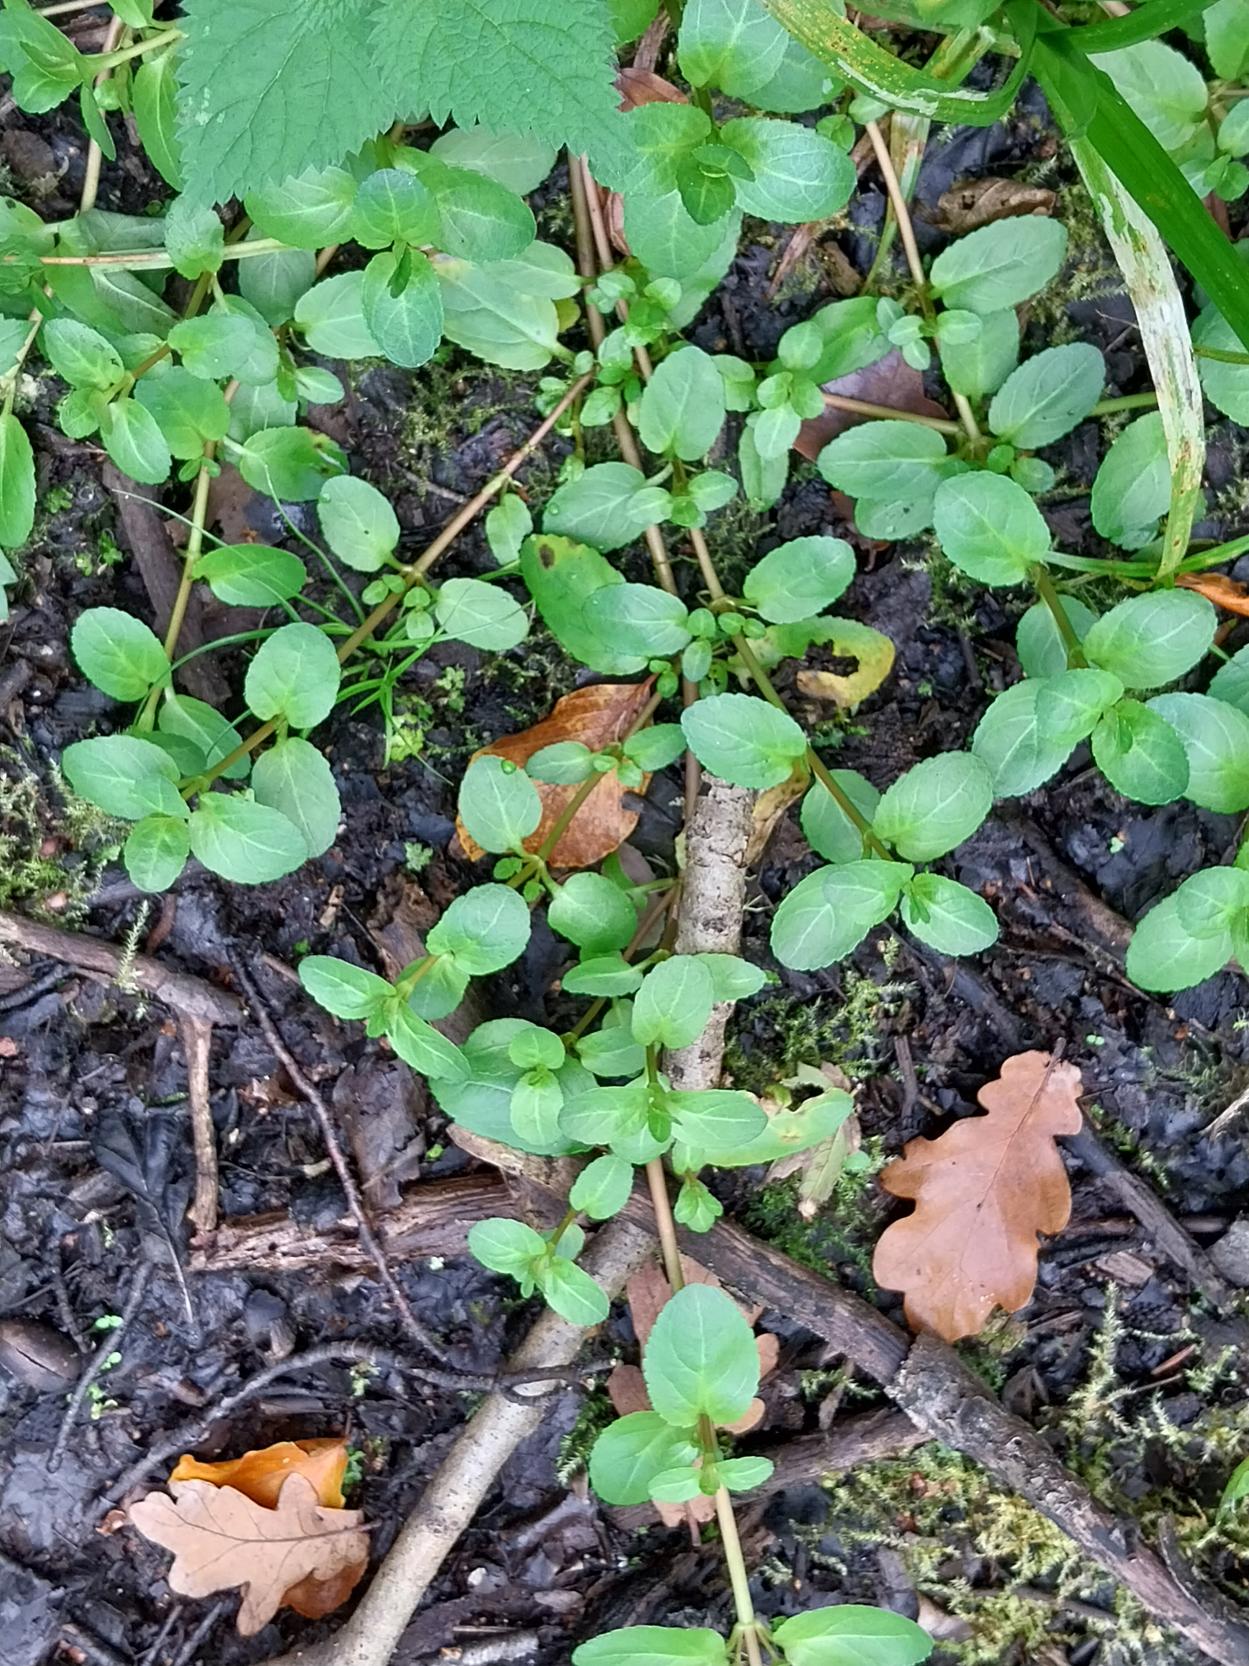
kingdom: Plantae
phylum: Tracheophyta
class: Magnoliopsida
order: Lamiales
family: Plantaginaceae
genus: Veronica
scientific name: Veronica beccabunga
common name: Tykbladet ærenpris
